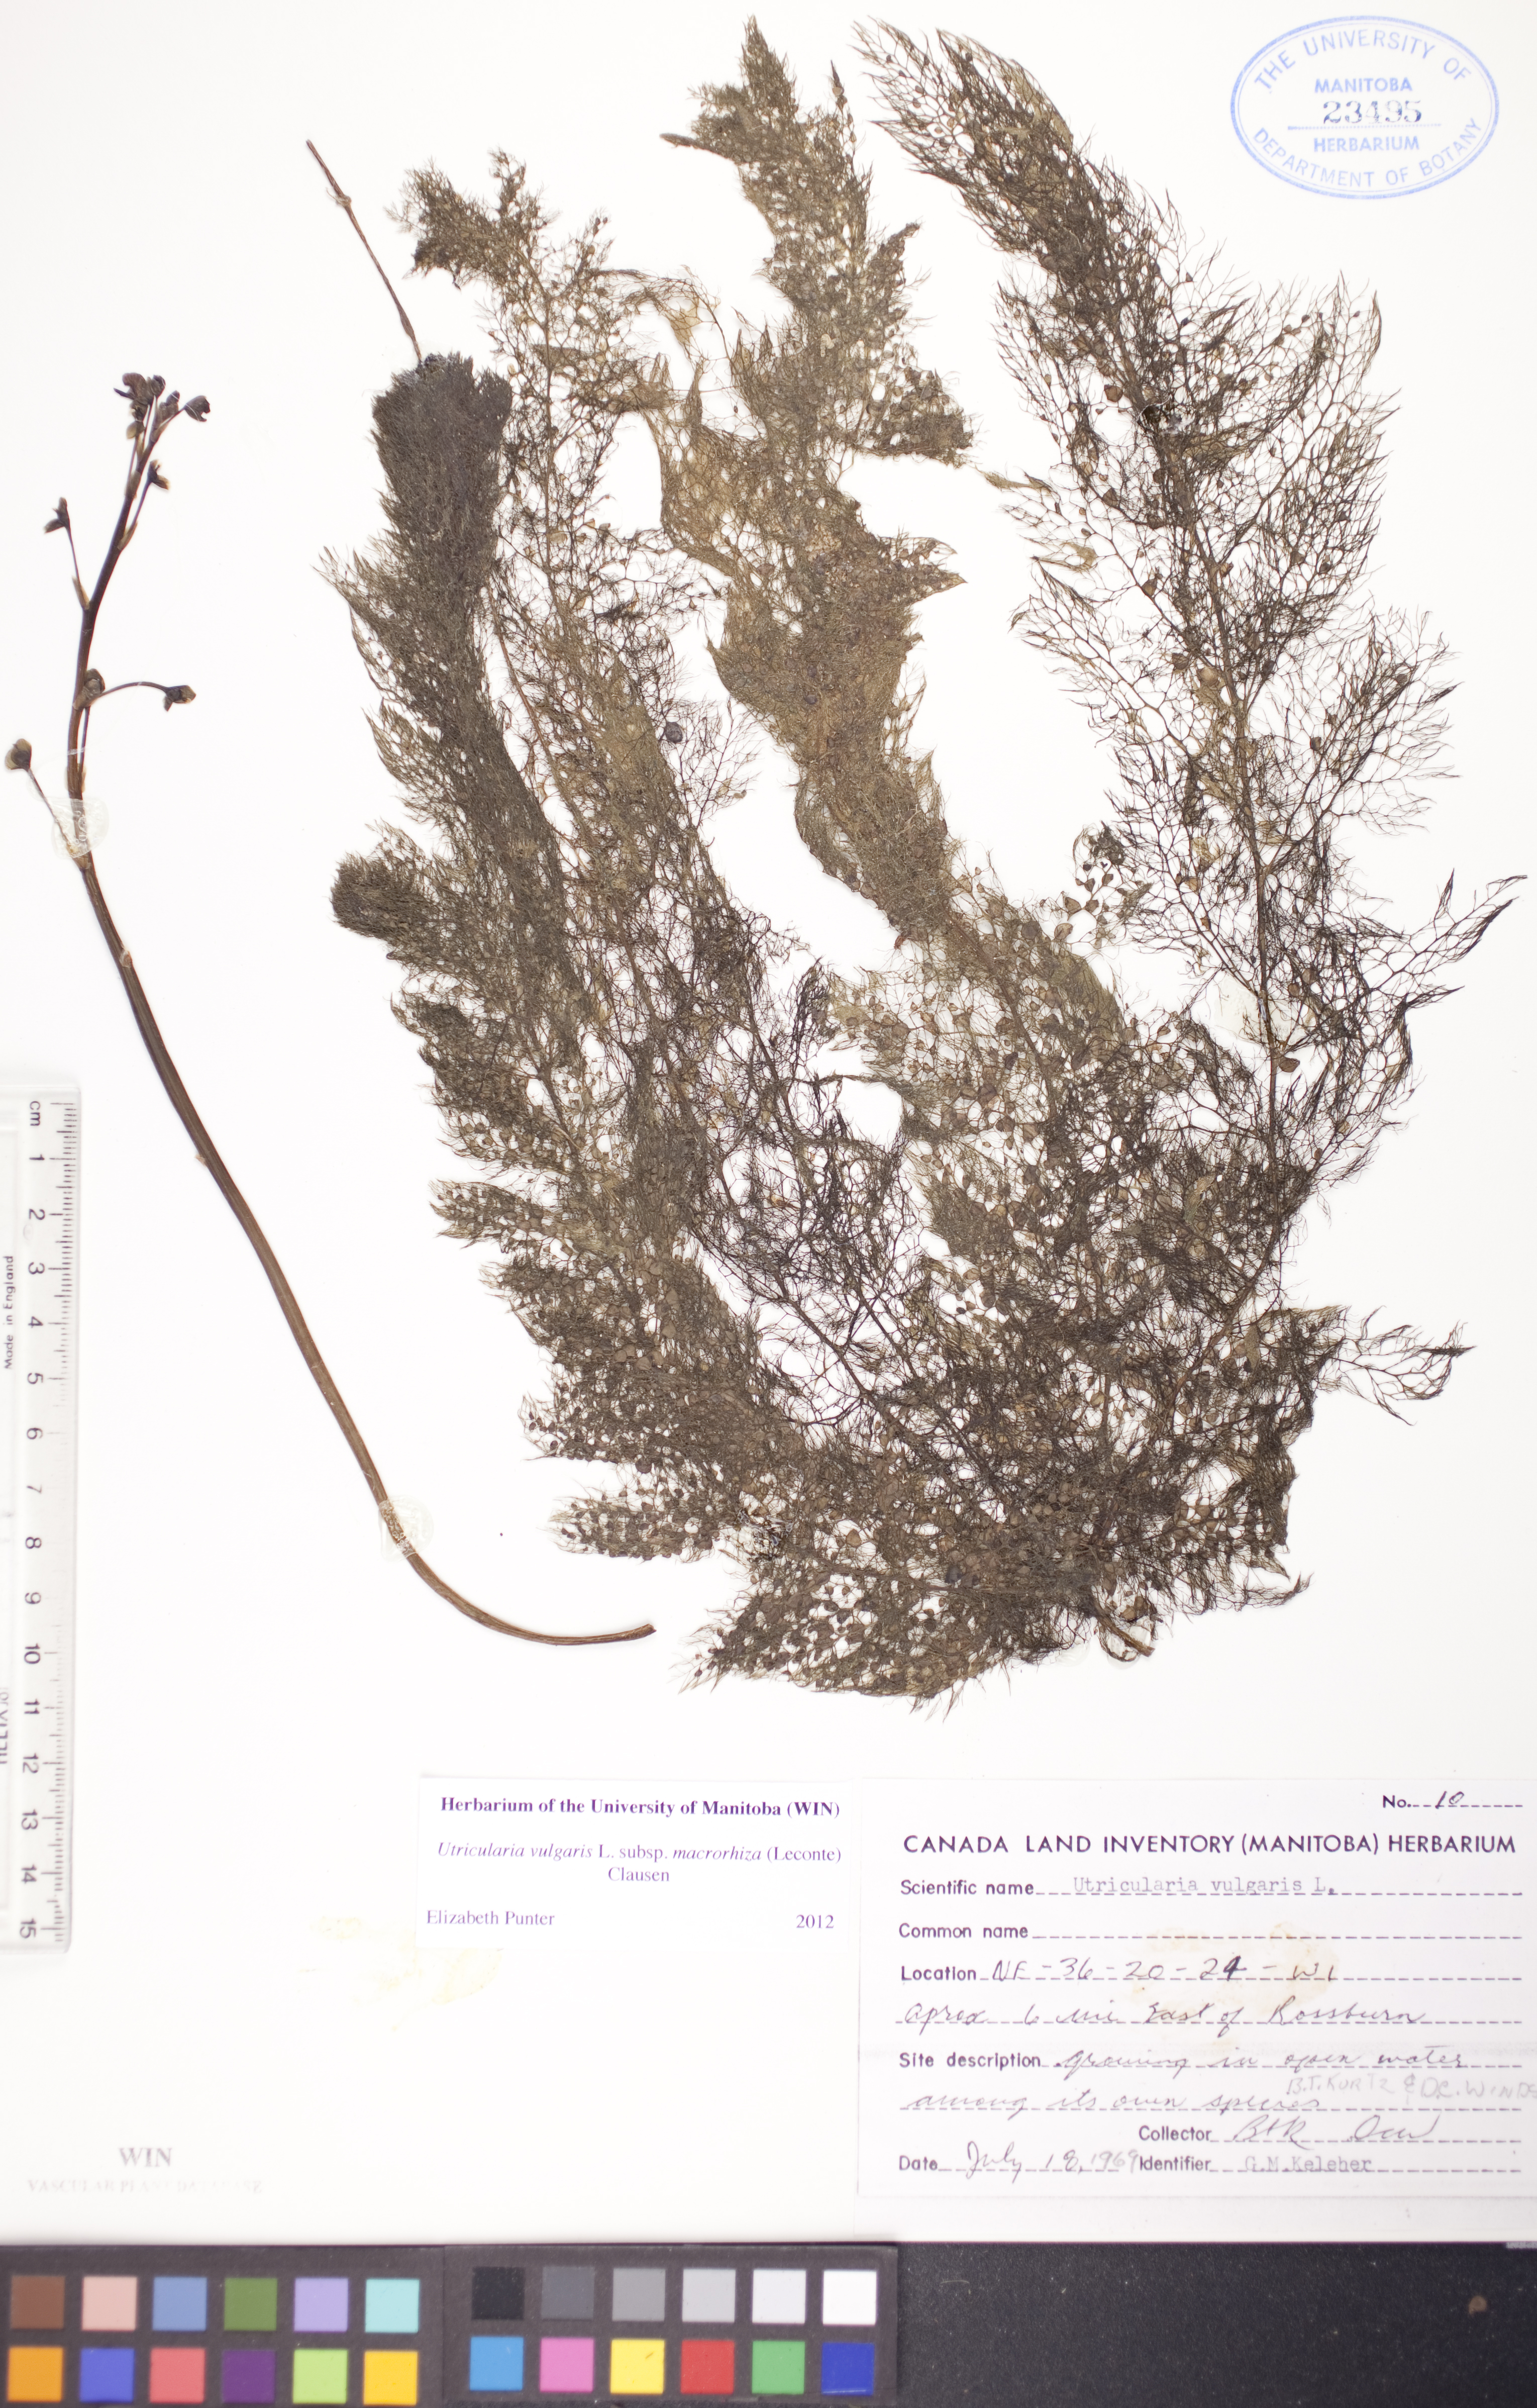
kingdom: Plantae
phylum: Tracheophyta
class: Magnoliopsida
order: Lamiales
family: Lentibulariaceae
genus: Utricularia
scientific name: Utricularia macrorhiza
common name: Common bladderwort
